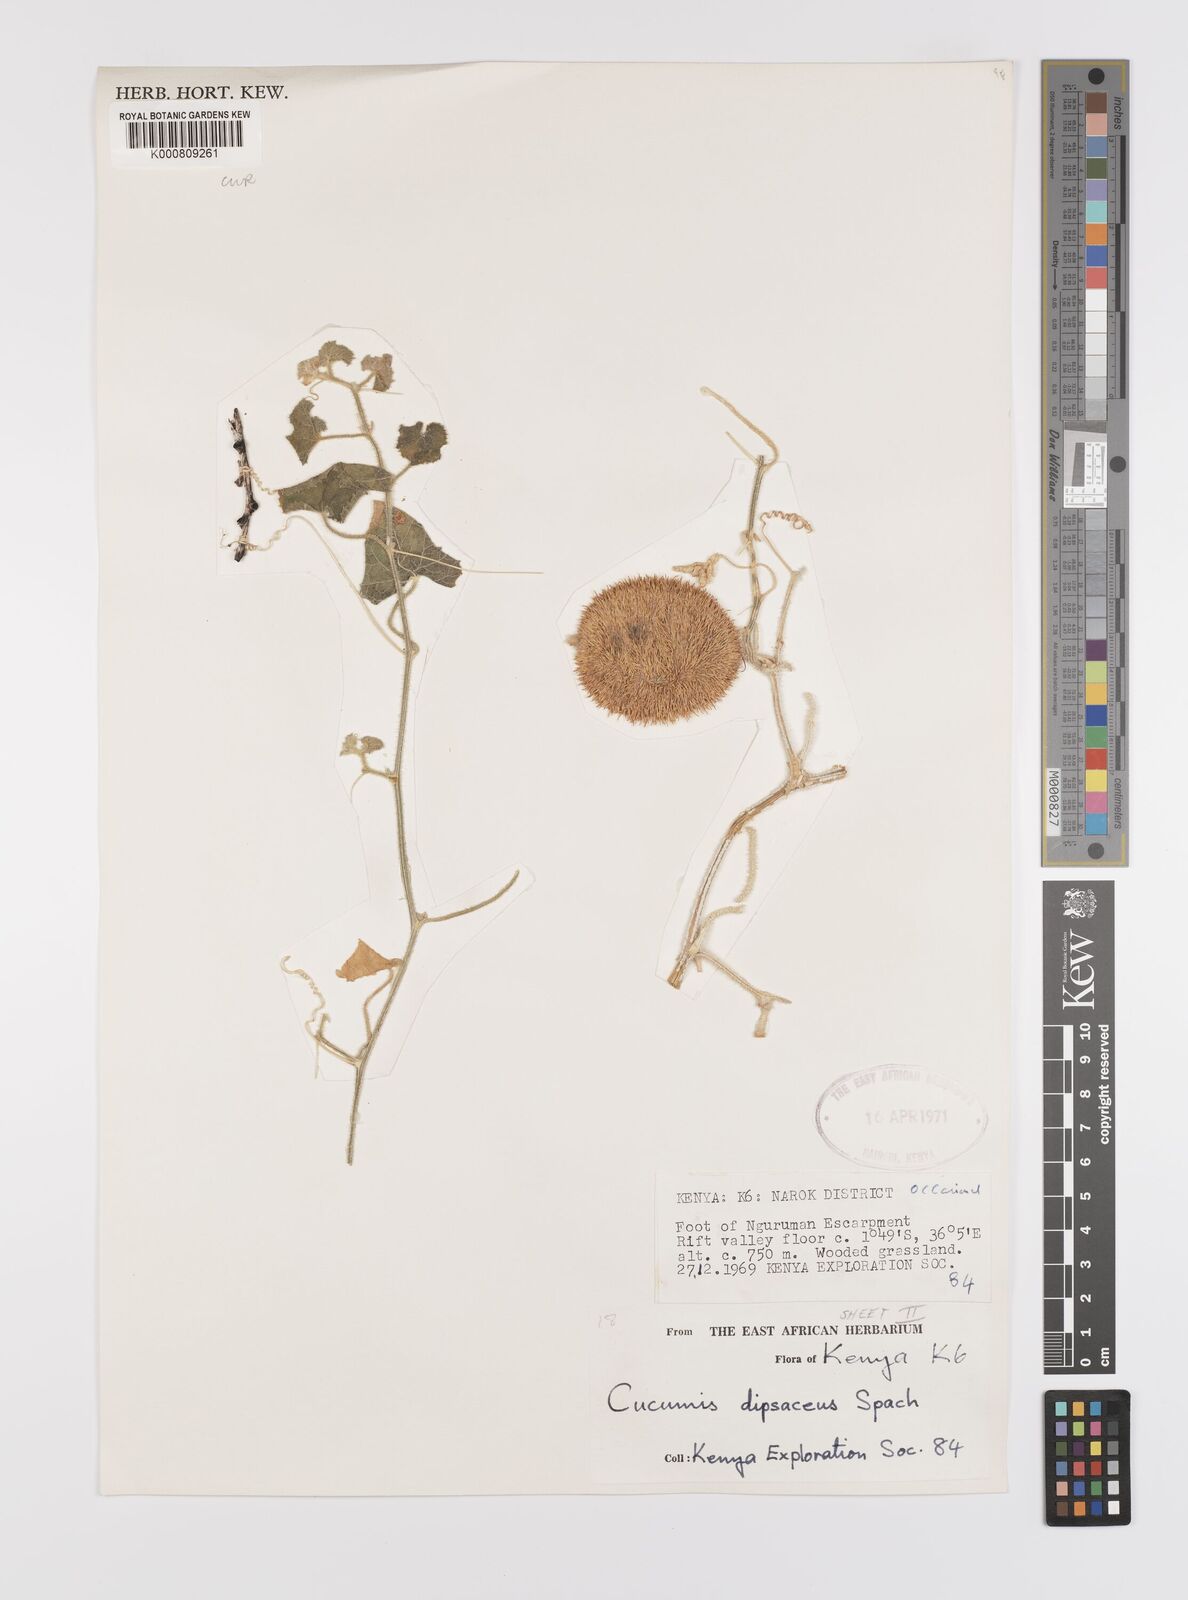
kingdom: Plantae
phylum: Tracheophyta
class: Magnoliopsida
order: Cucurbitales
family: Cucurbitaceae
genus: Cucumis
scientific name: Cucumis dipsaceus
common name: Hedgehog gourd
